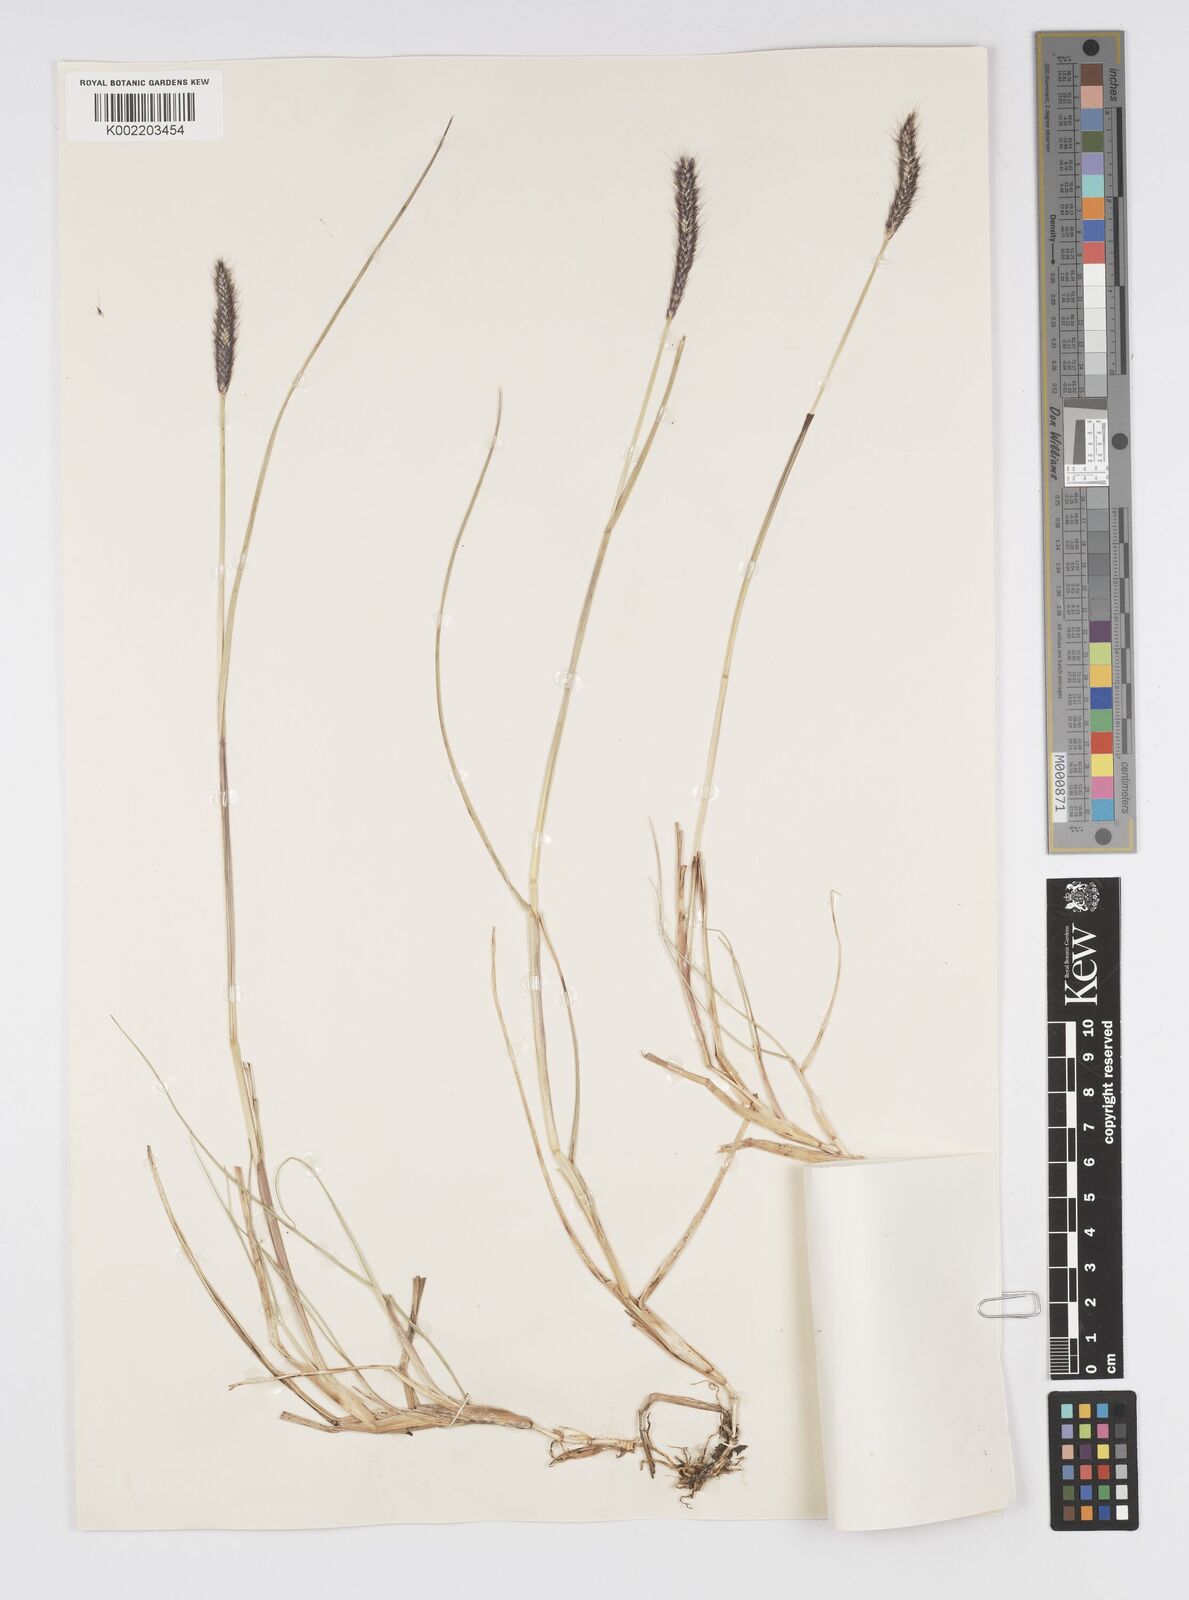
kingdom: Plantae
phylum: Tracheophyta
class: Liliopsida
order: Poales
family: Poaceae
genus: Cenchrus
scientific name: Cenchrus geniculatus
